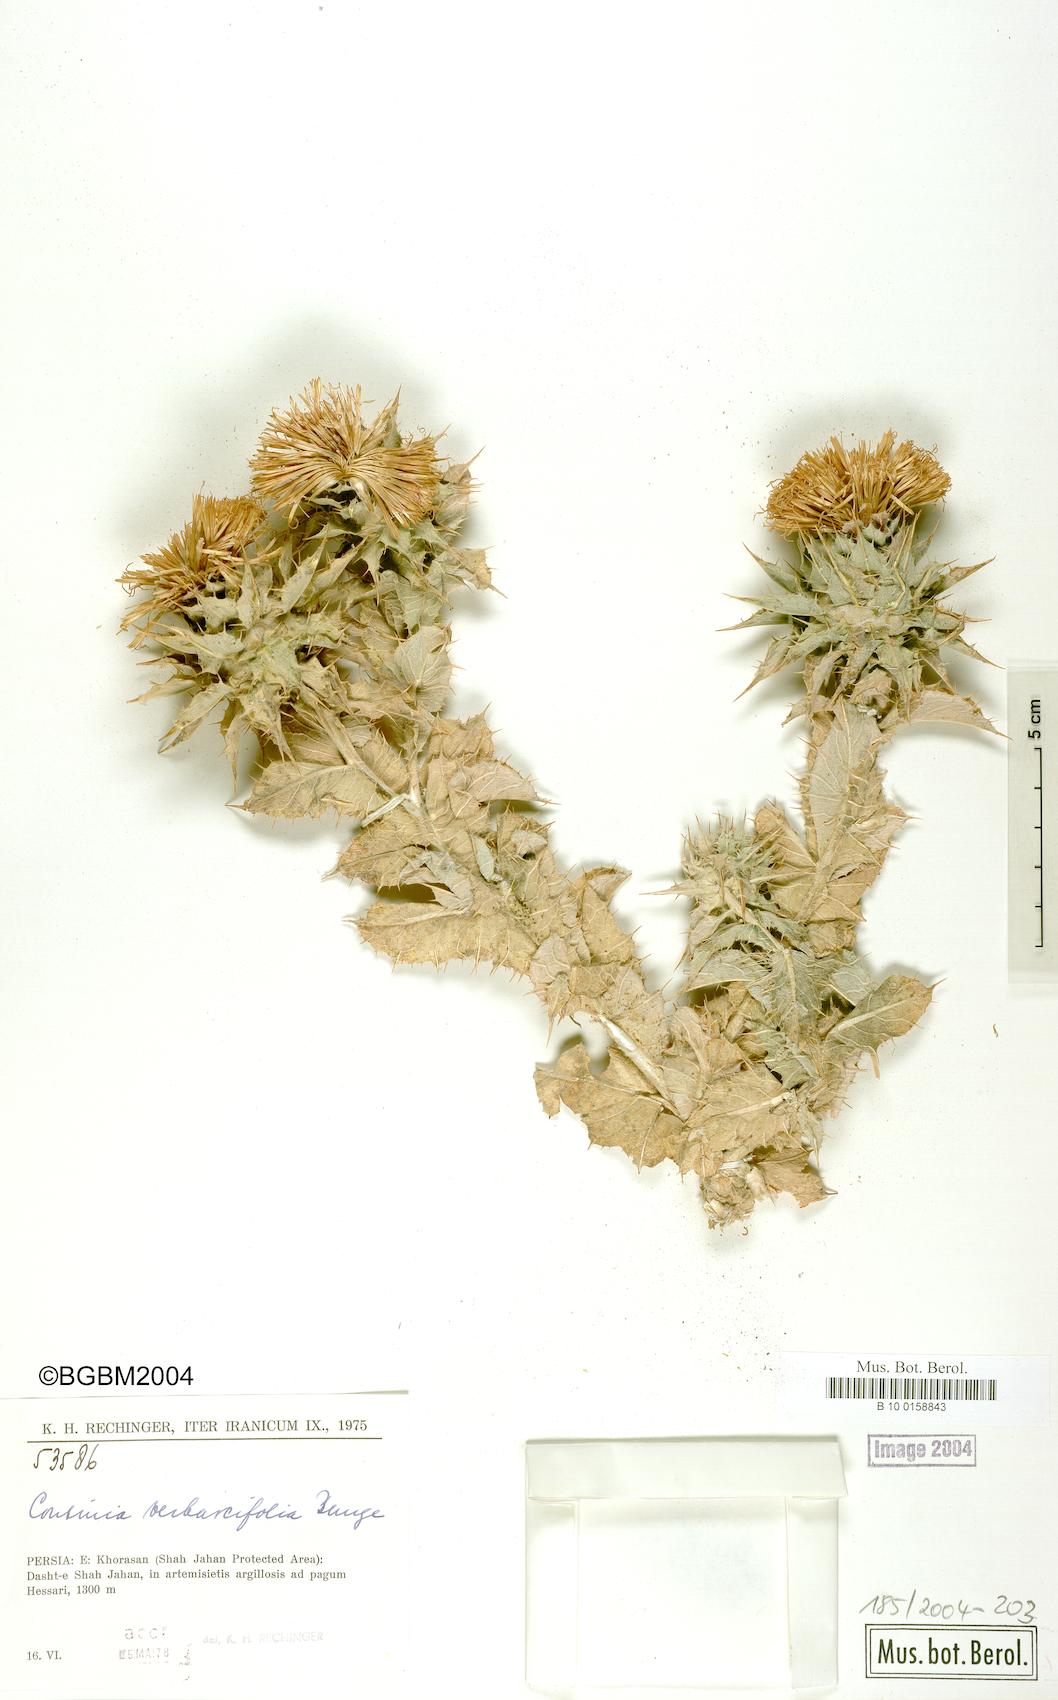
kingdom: Plantae
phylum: Tracheophyta
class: Magnoliopsida
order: Asterales
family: Asteraceae
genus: Cousinia
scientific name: Cousinia verbascifolia
